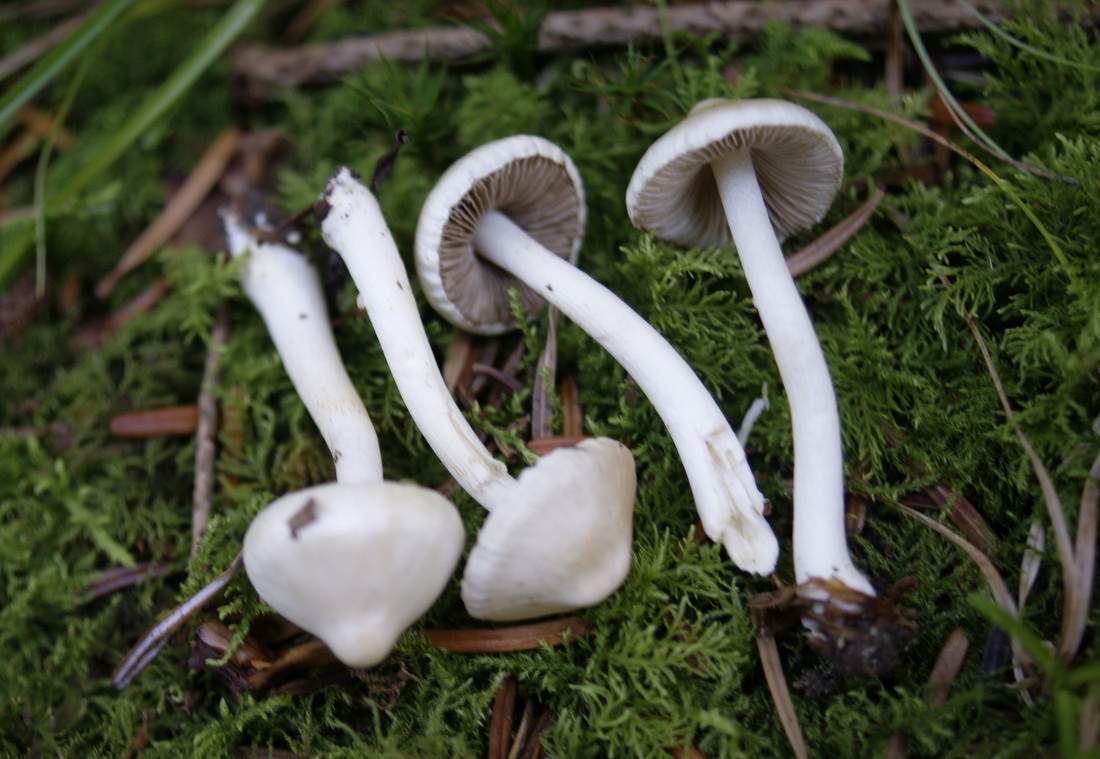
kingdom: Fungi
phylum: Basidiomycota
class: Agaricomycetes
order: Agaricales
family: Inocybaceae
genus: Inocybe
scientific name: Inocybe
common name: almindelig trævlhat
